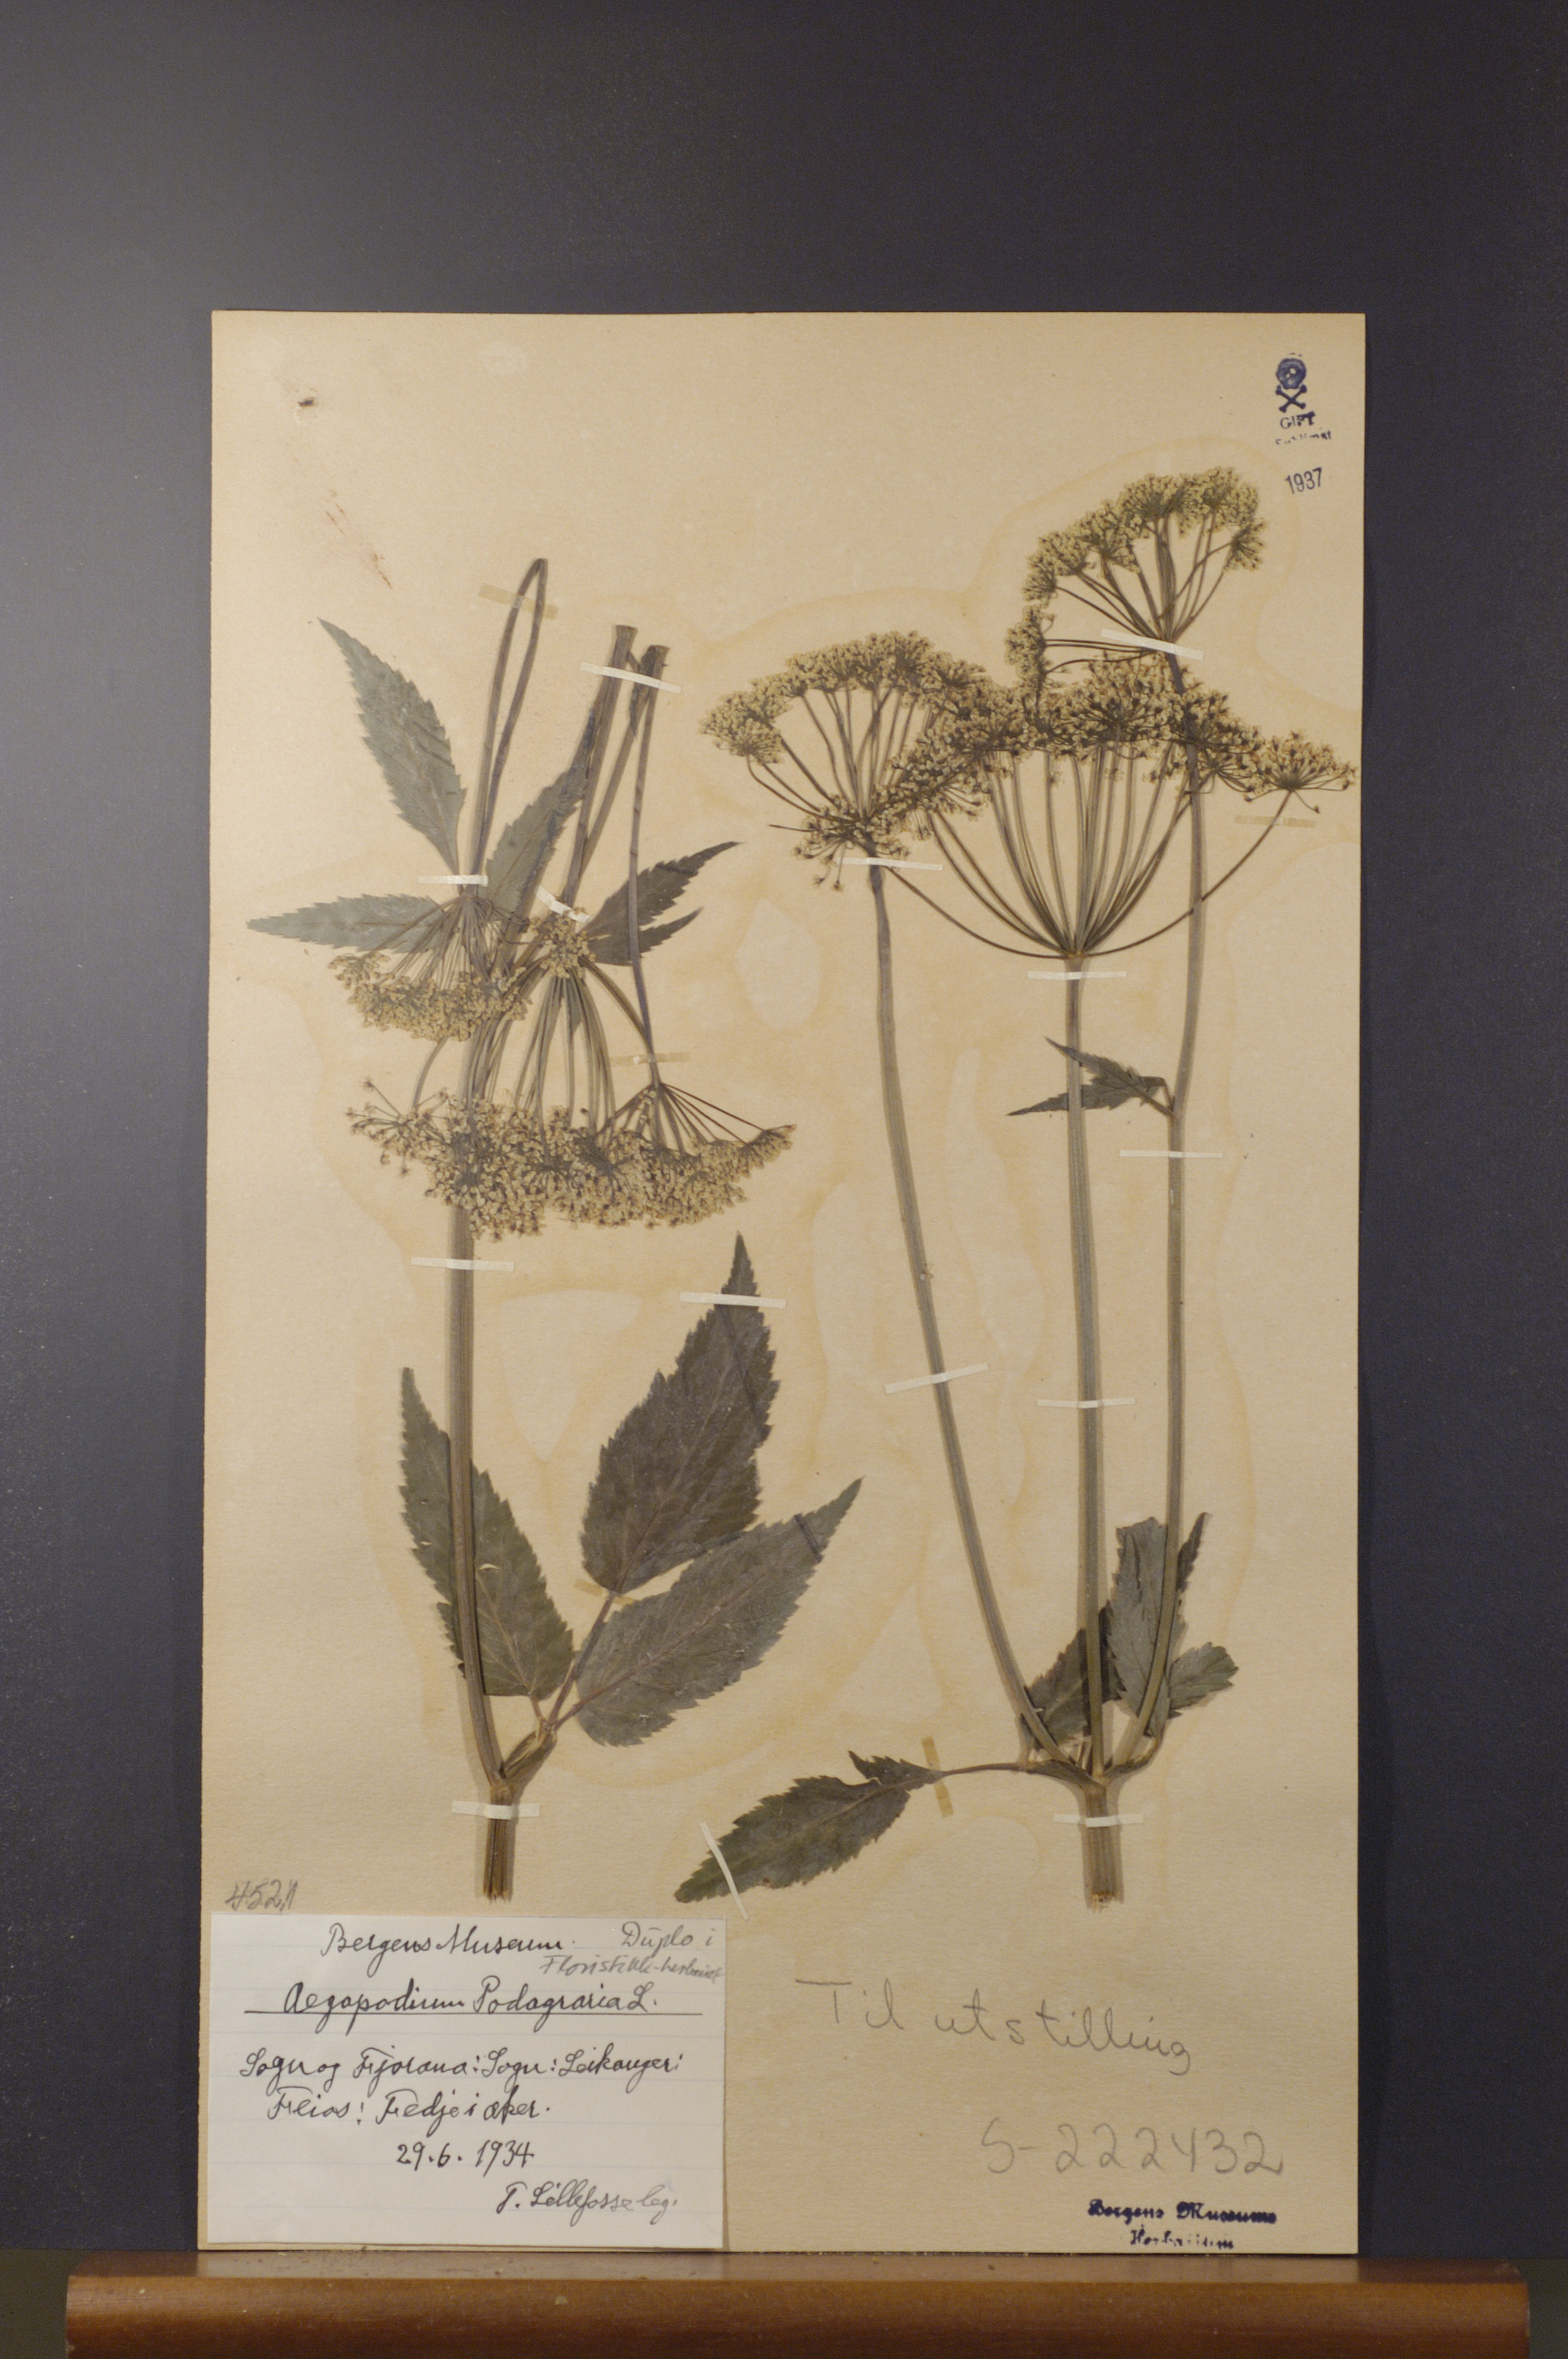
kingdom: Plantae
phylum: Tracheophyta
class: Magnoliopsida
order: Apiales
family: Apiaceae
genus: Aegopodium
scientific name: Aegopodium podagraria
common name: Ground-elder
